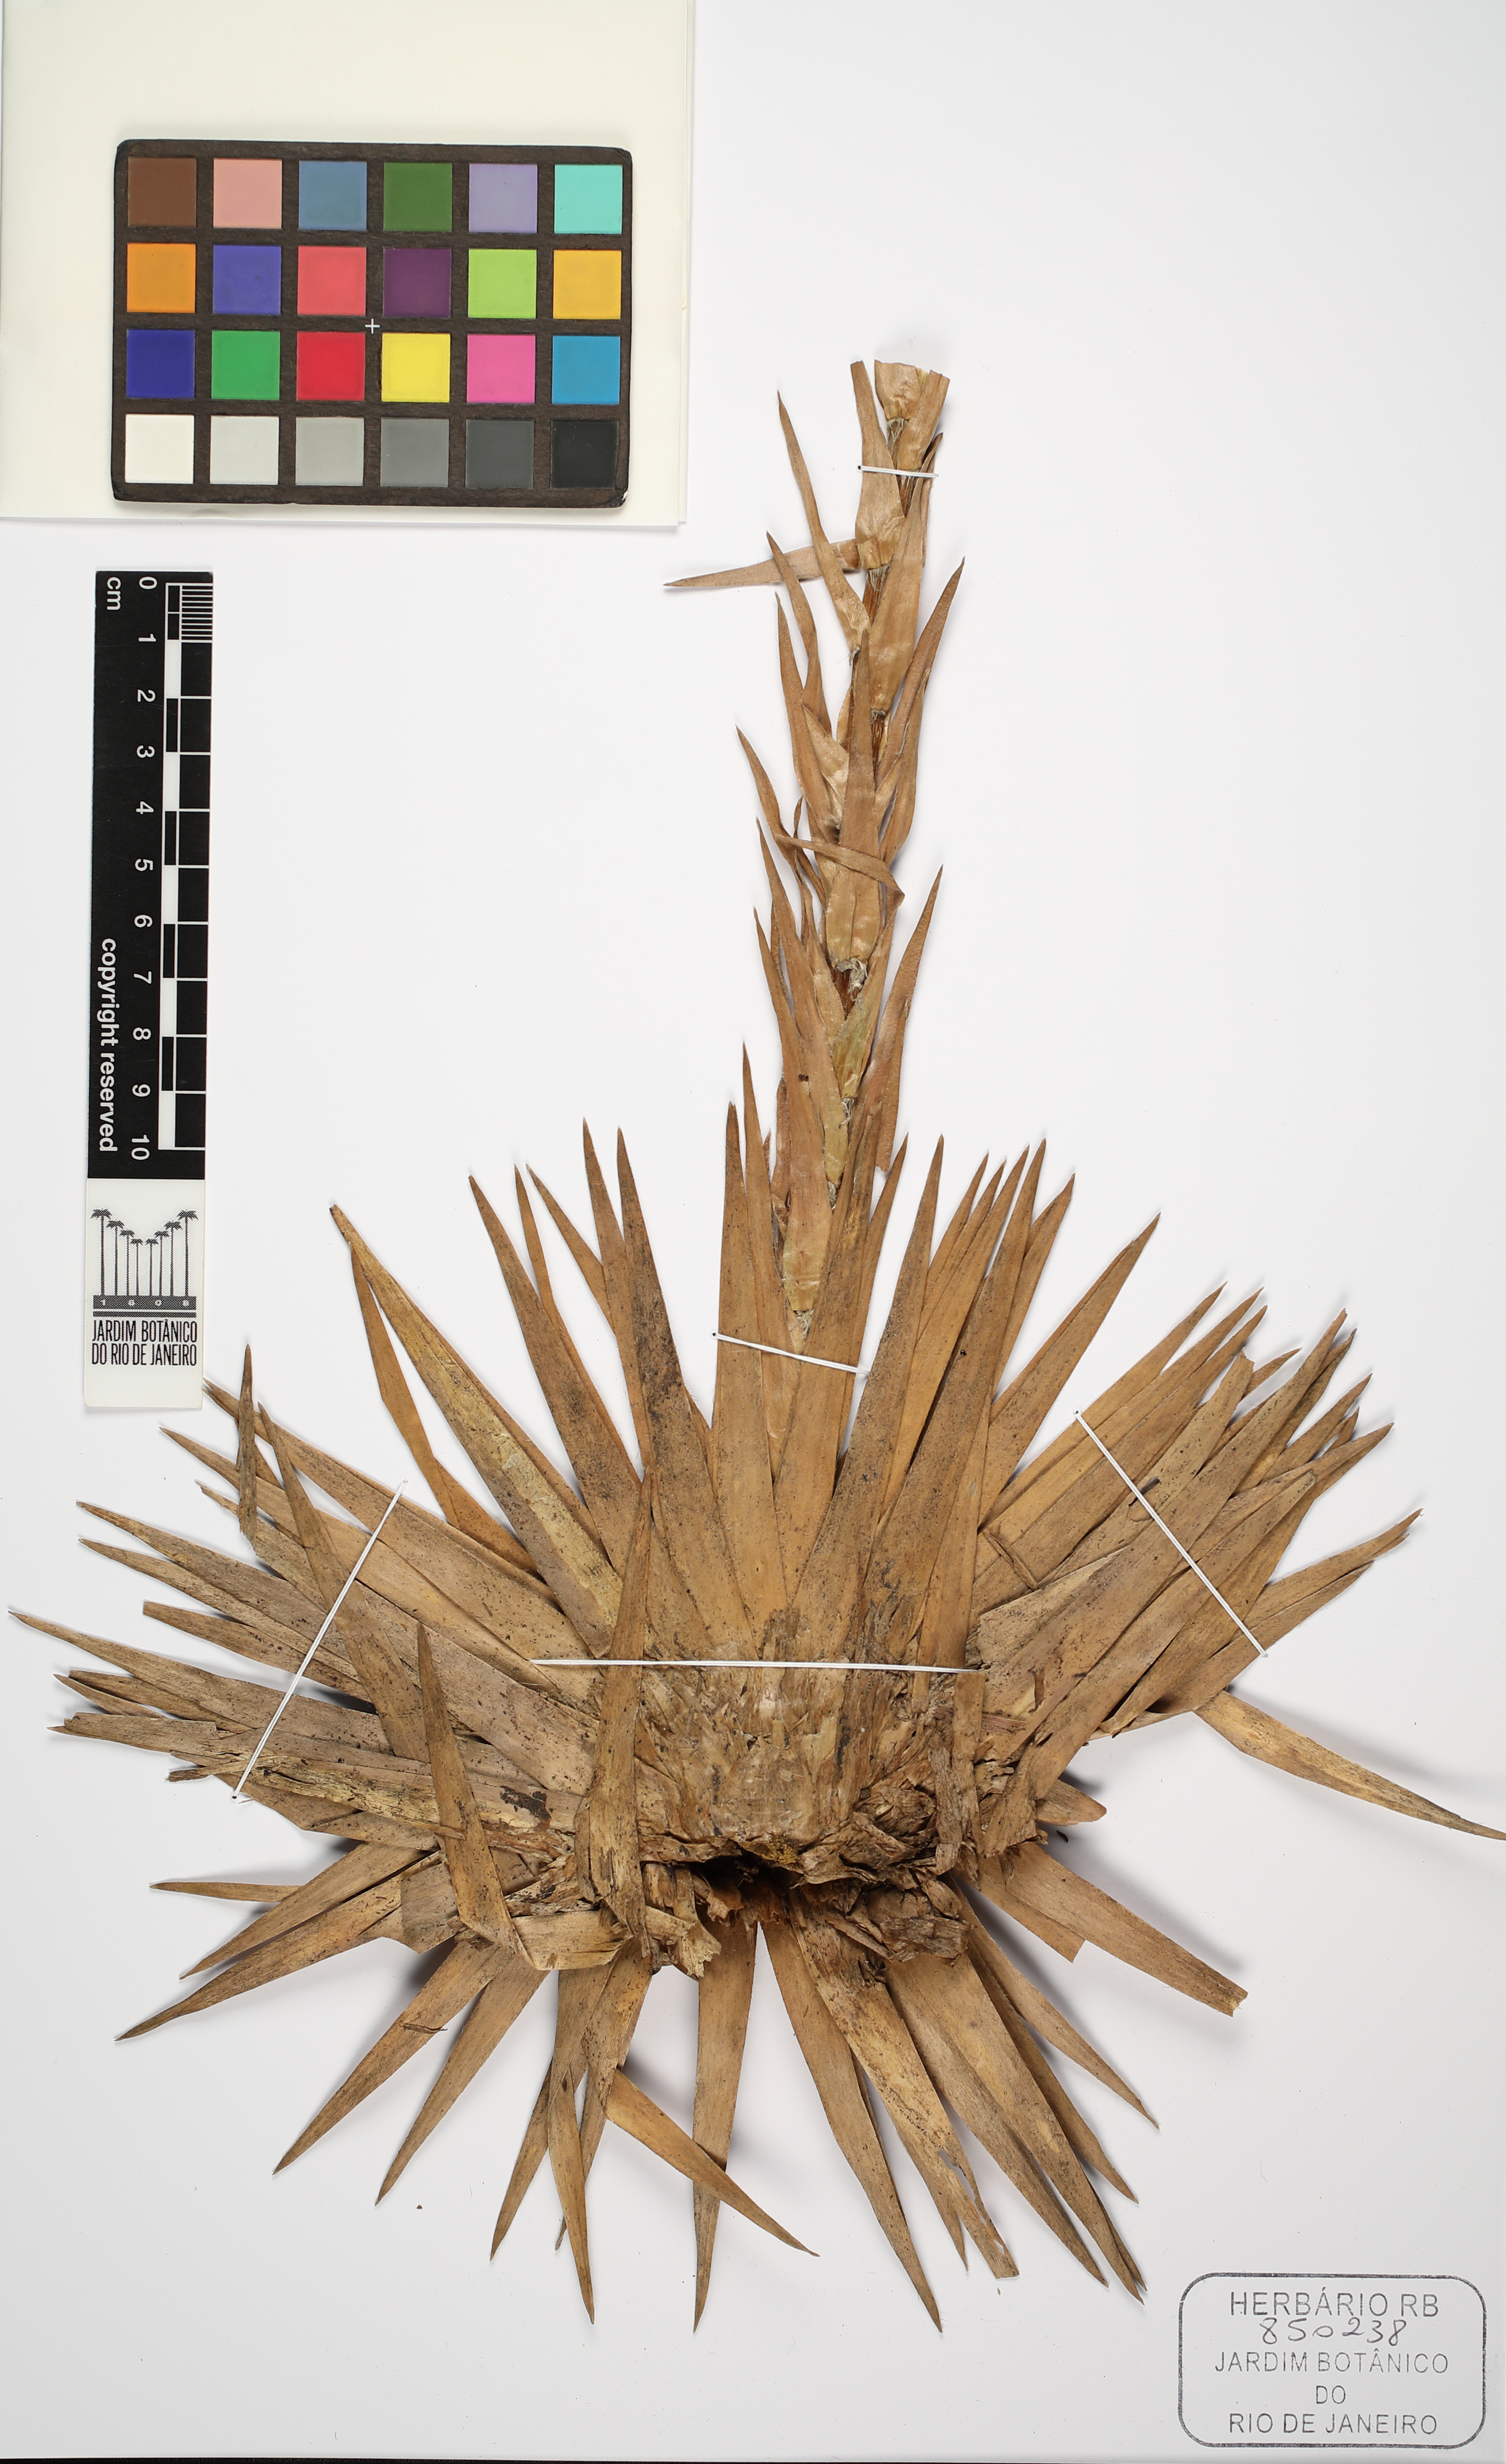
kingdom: Plantae
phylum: Tracheophyta
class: Liliopsida
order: Poales
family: Eriocaulaceae
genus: Paepalanthus
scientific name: Paepalanthus polyanthus
